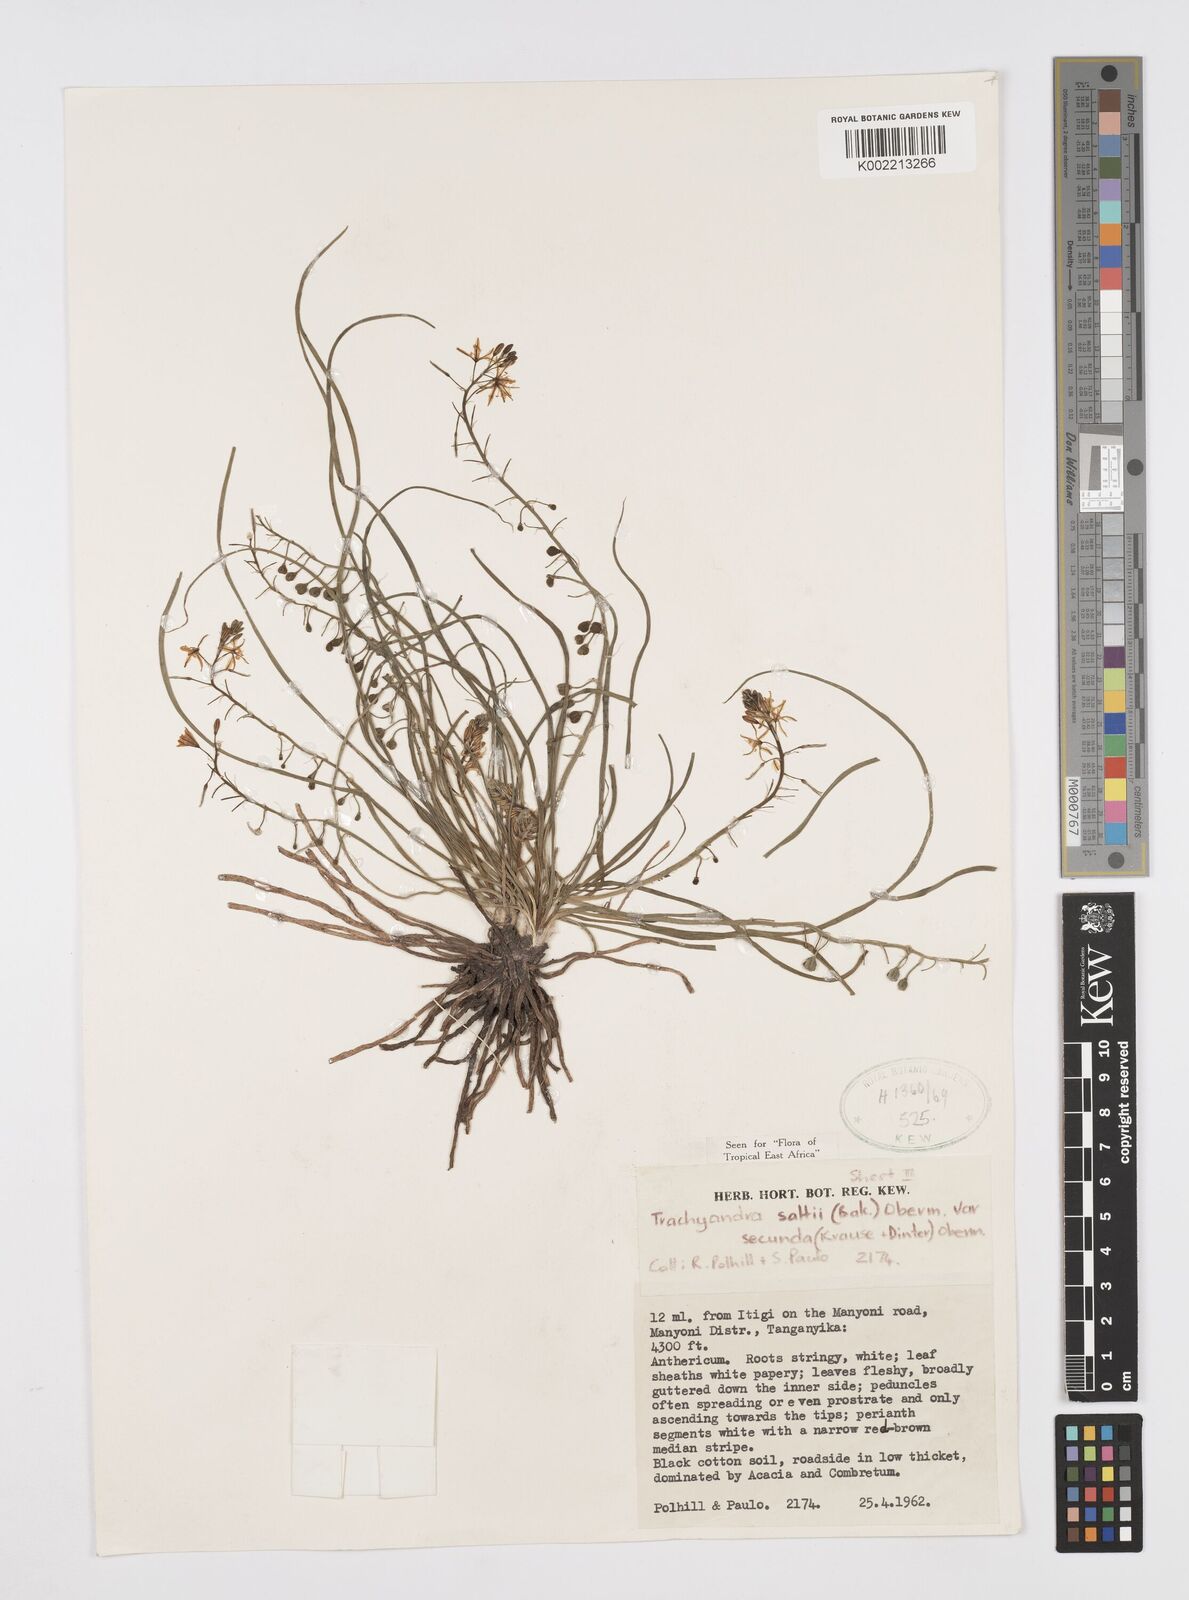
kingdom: Plantae
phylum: Tracheophyta
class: Liliopsida
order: Asparagales
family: Asphodelaceae
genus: Trachyandra
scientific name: Trachyandra saltii
